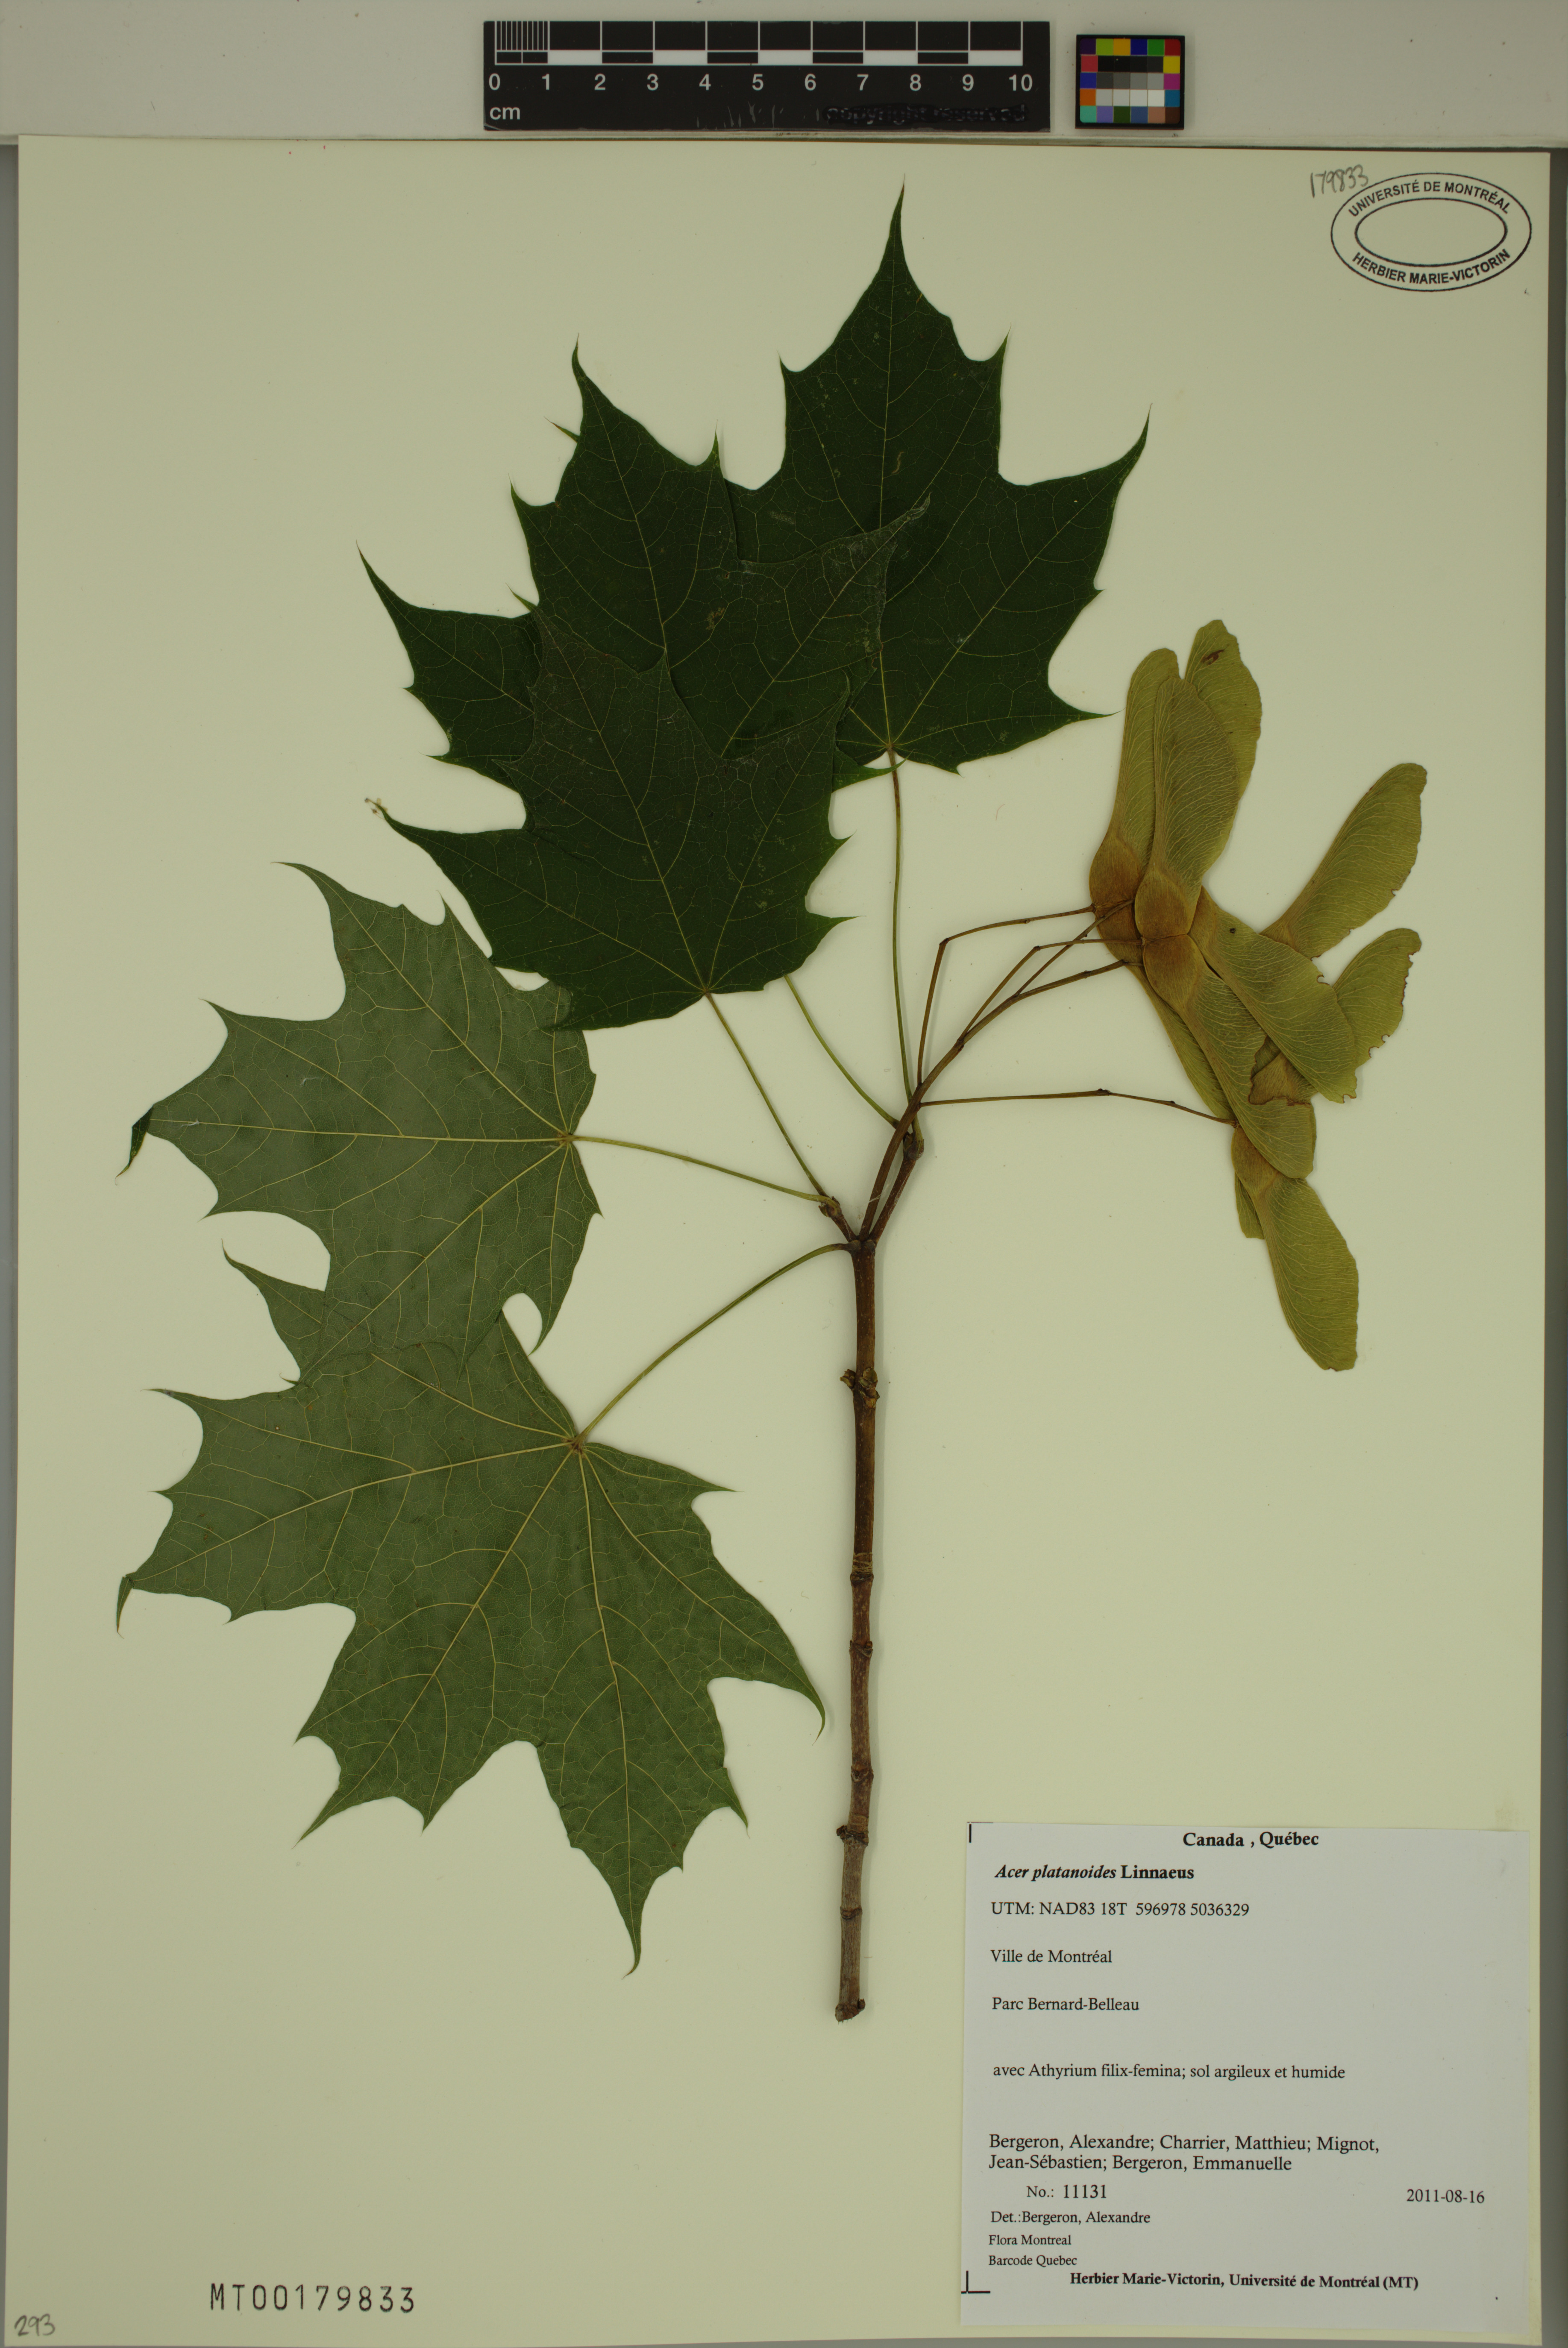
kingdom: Plantae
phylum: Tracheophyta
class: Magnoliopsida
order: Sapindales
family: Sapindaceae
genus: Acer
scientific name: Acer platanoides
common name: Norway maple
